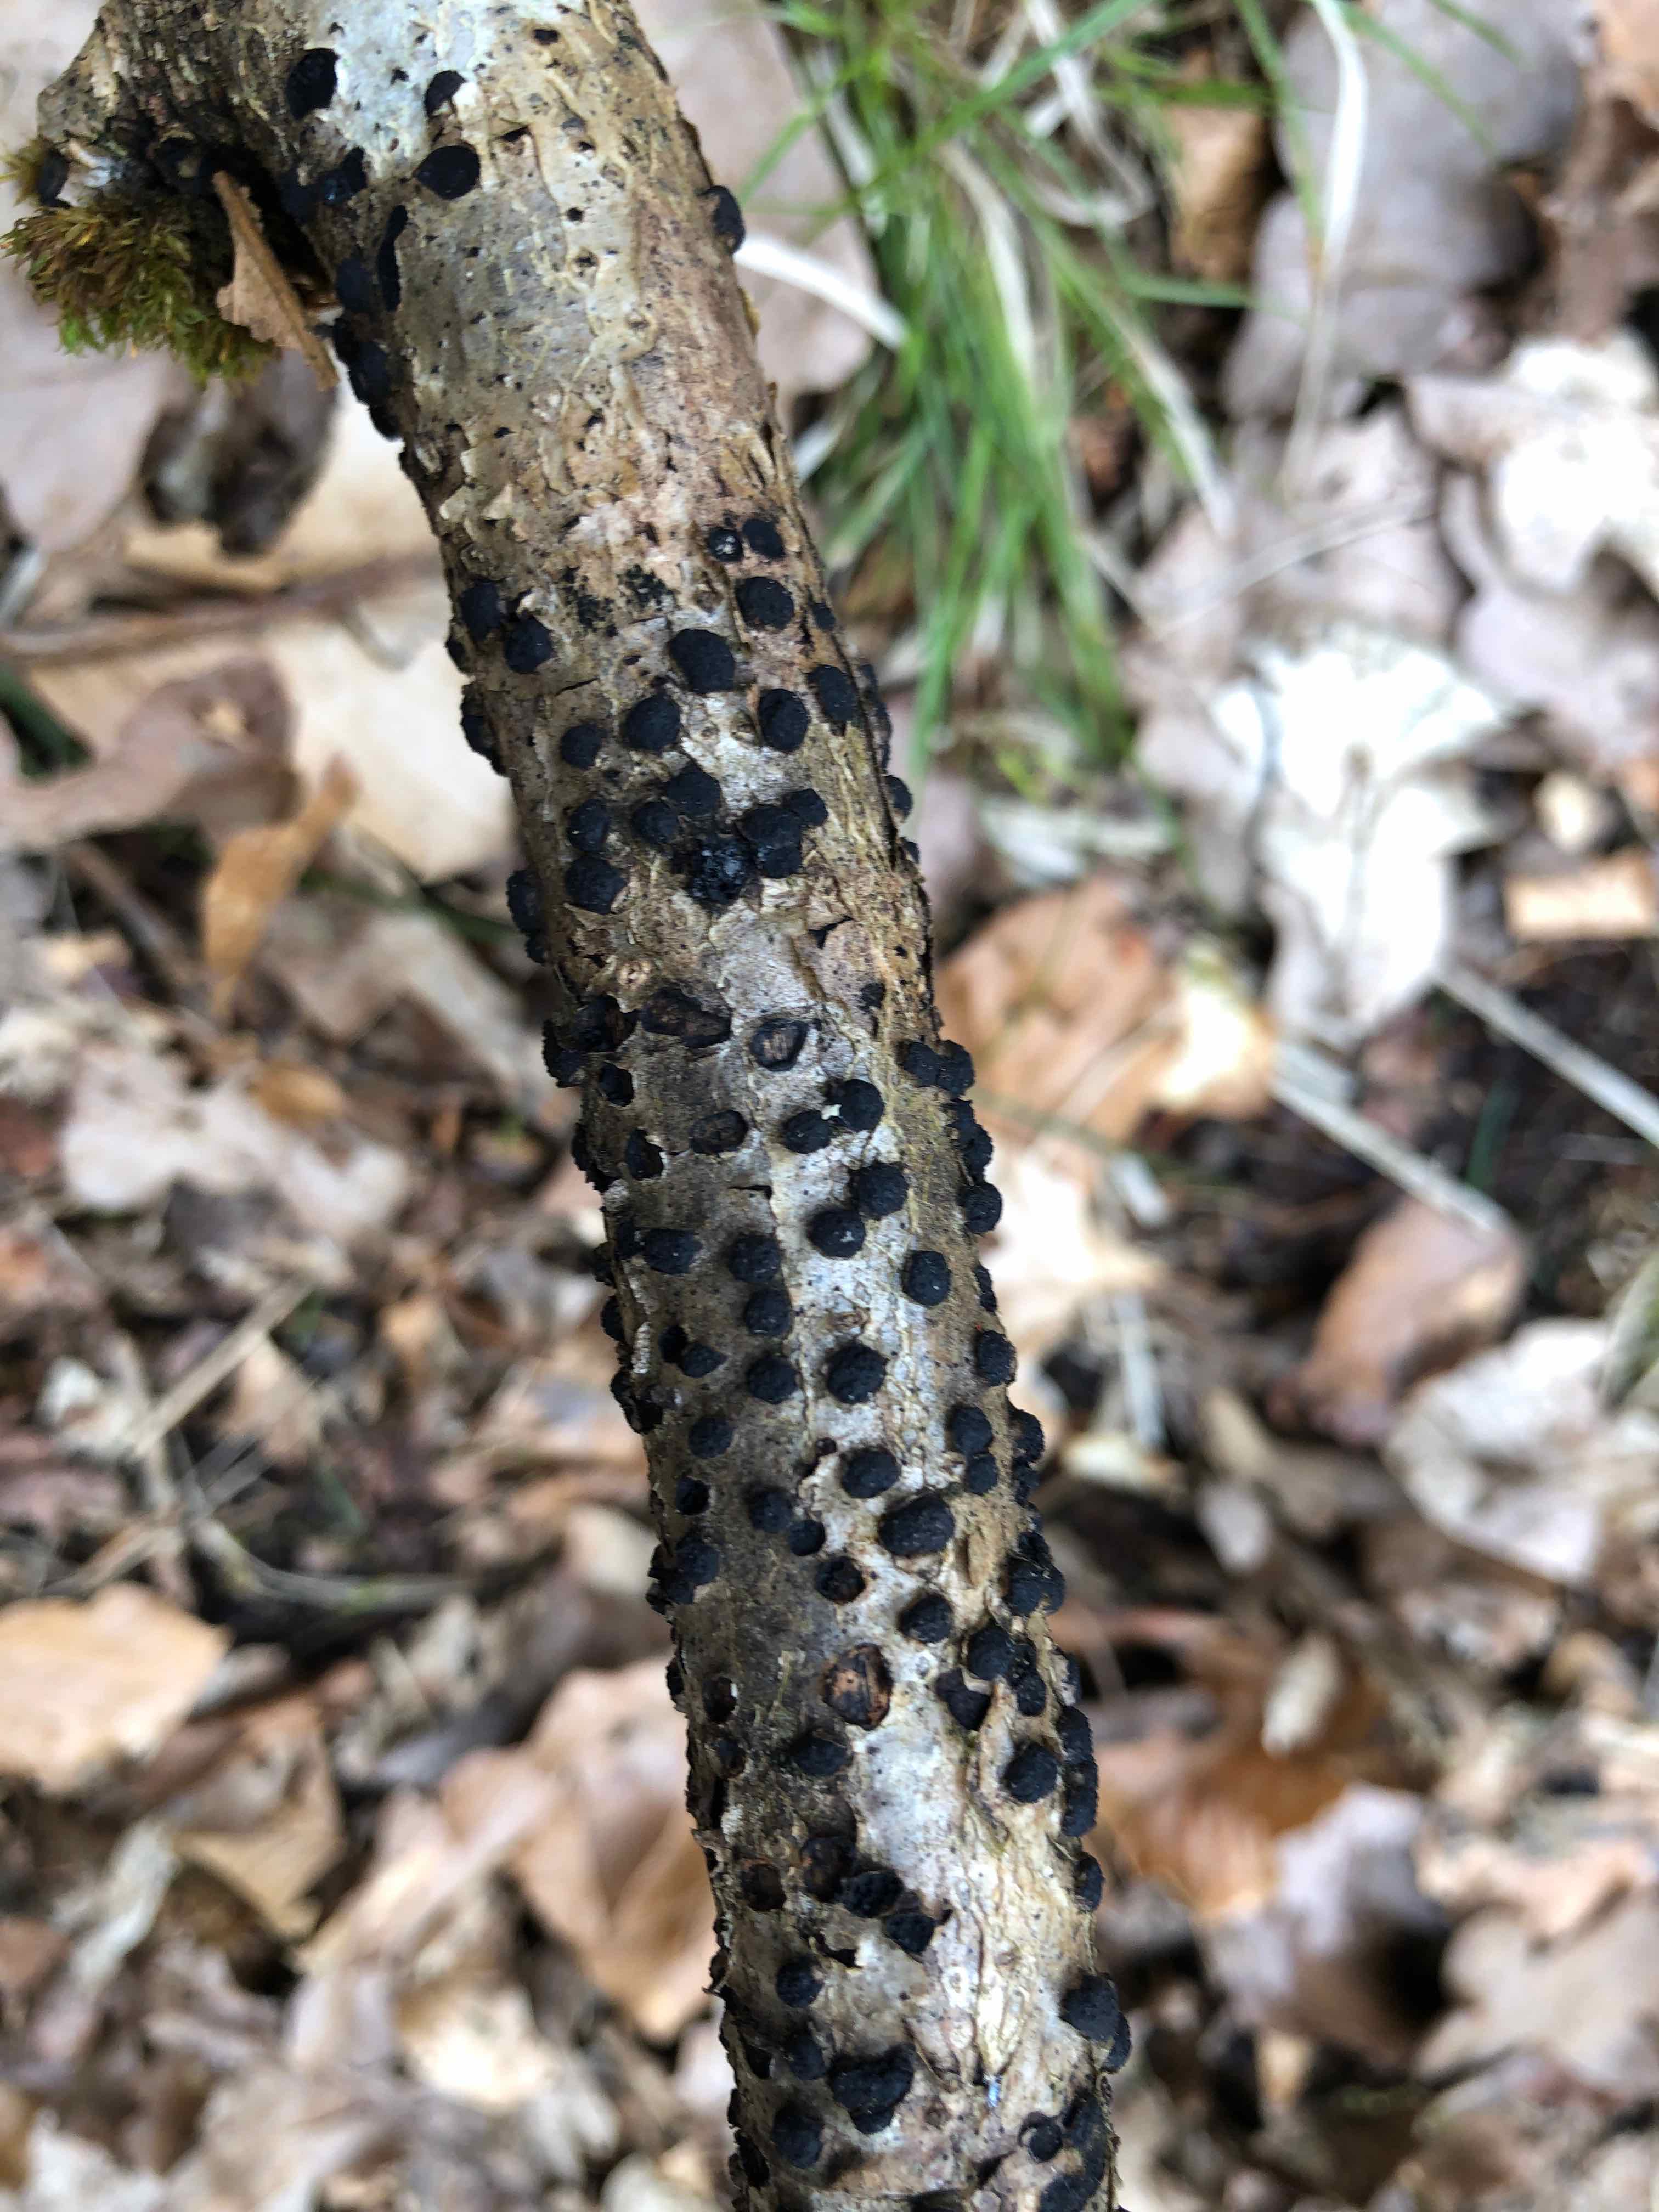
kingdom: Fungi
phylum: Ascomycota
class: Sordariomycetes
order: Xylariales
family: Diatrypaceae
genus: Diatrypella
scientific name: Diatrypella quercina
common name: ege-kulskorpe
